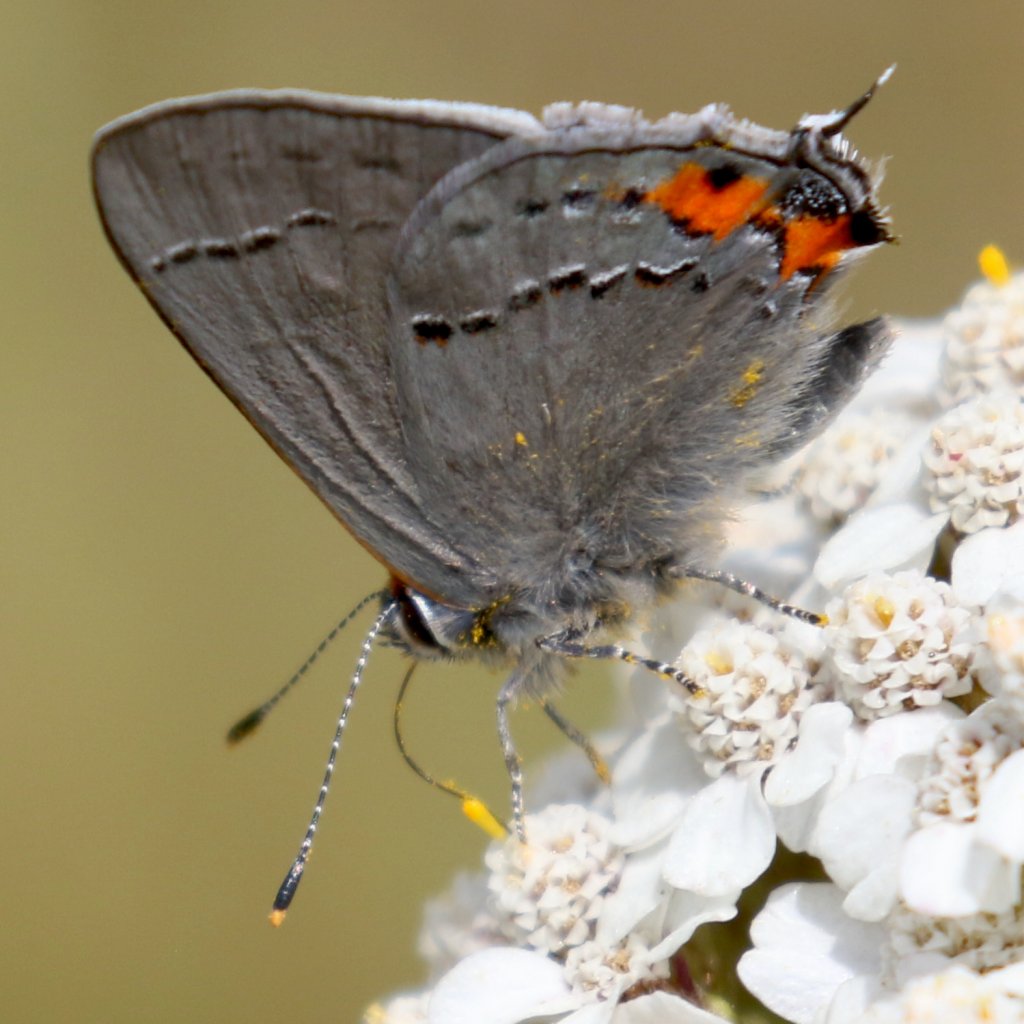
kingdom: Animalia
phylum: Arthropoda
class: Insecta
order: Lepidoptera
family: Lycaenidae
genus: Strymon
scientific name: Strymon melinus
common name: Gray Hairstreak
